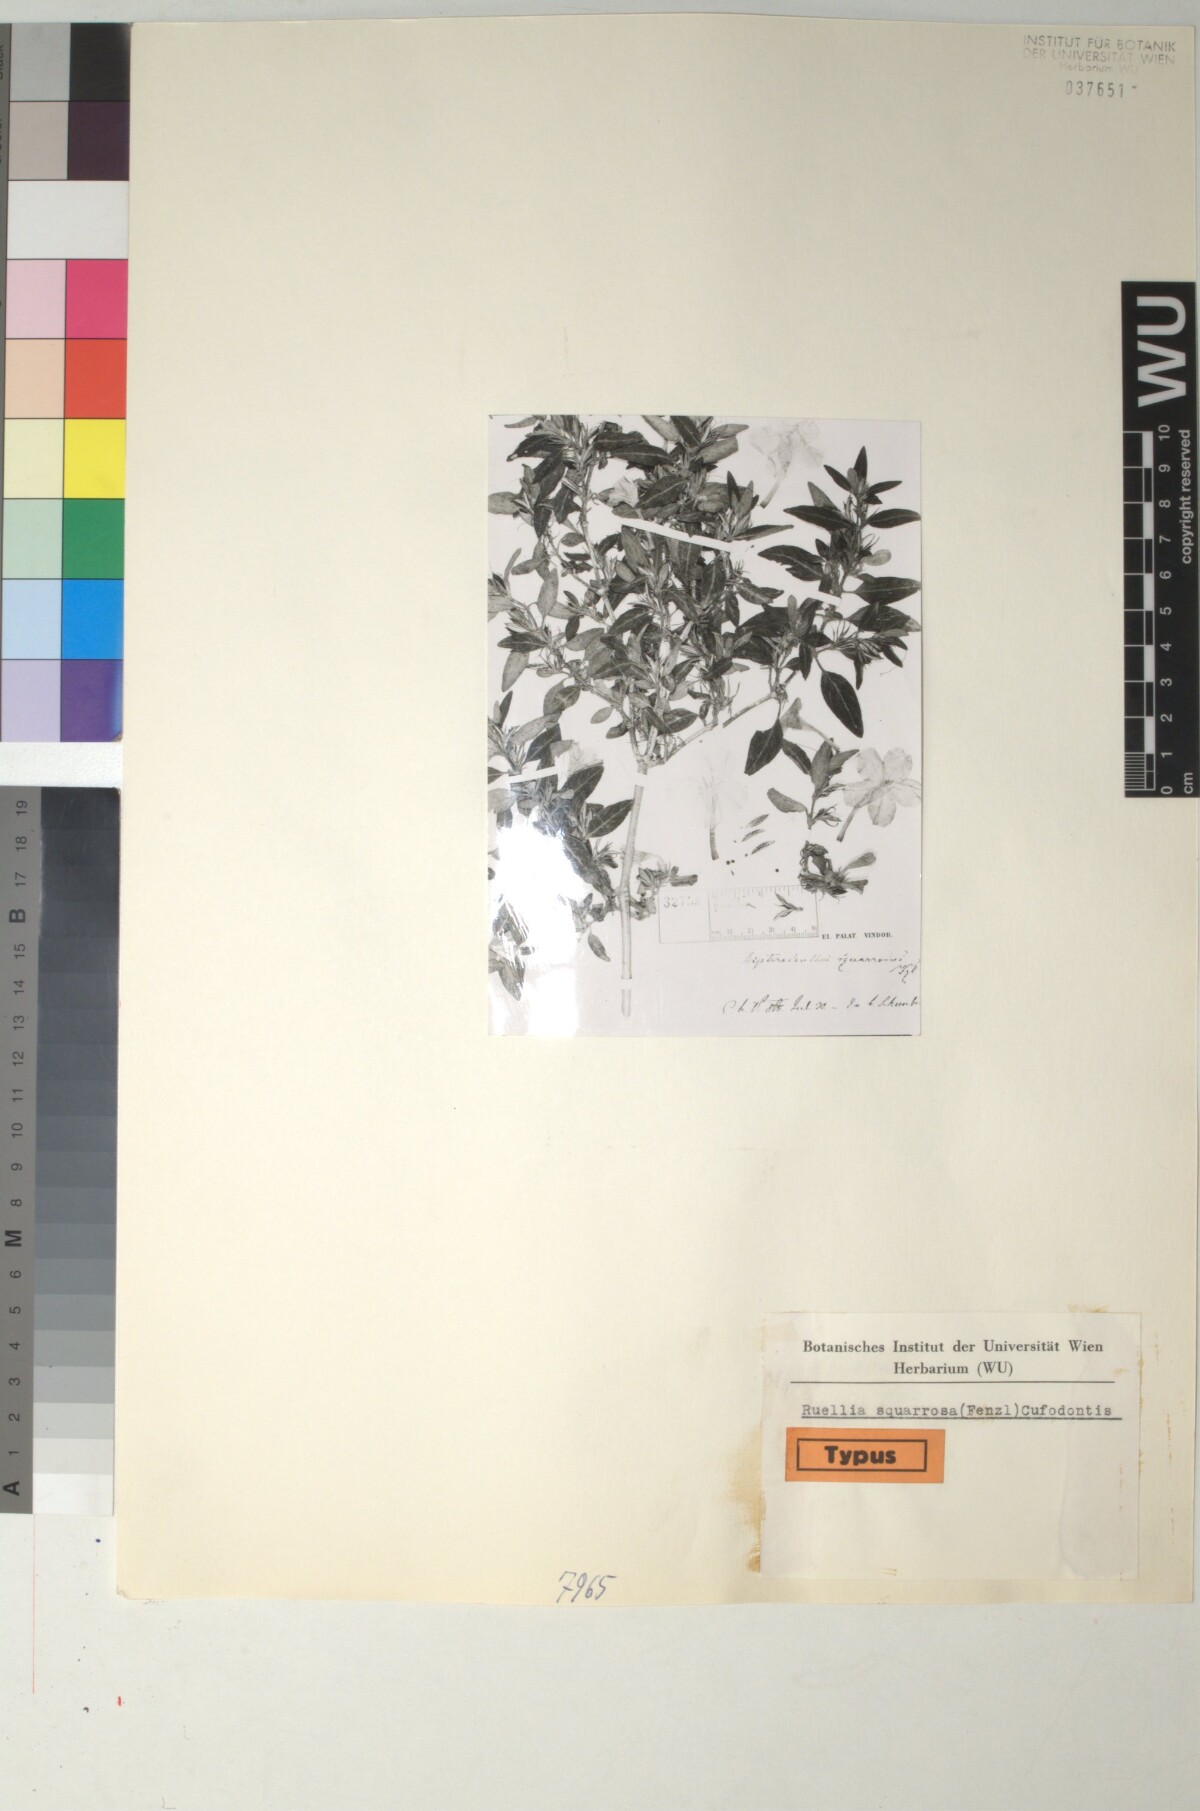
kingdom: Plantae
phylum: Tracheophyta
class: Magnoliopsida
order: Lamiales
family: Acanthaceae
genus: Ruellia
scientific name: Ruellia longepetiolata
